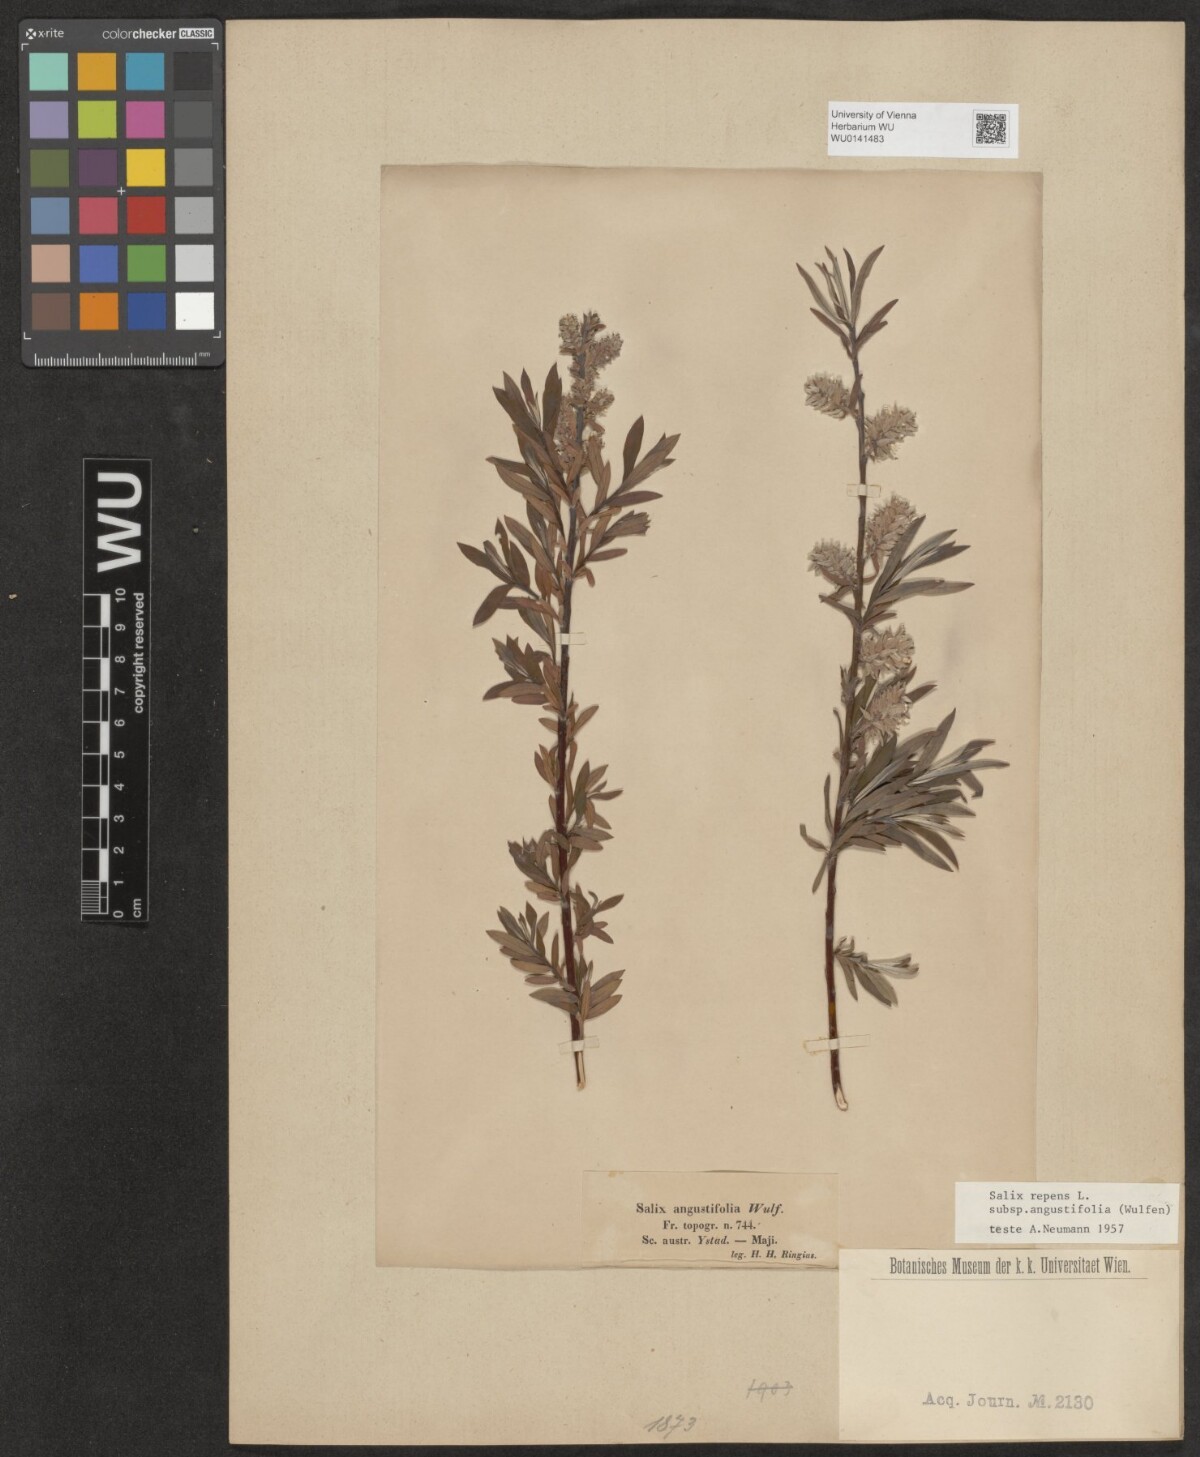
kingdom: Plantae
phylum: Tracheophyta
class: Magnoliopsida
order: Malpighiales
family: Salicaceae
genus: Salix
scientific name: Salix rosmarinifolia
